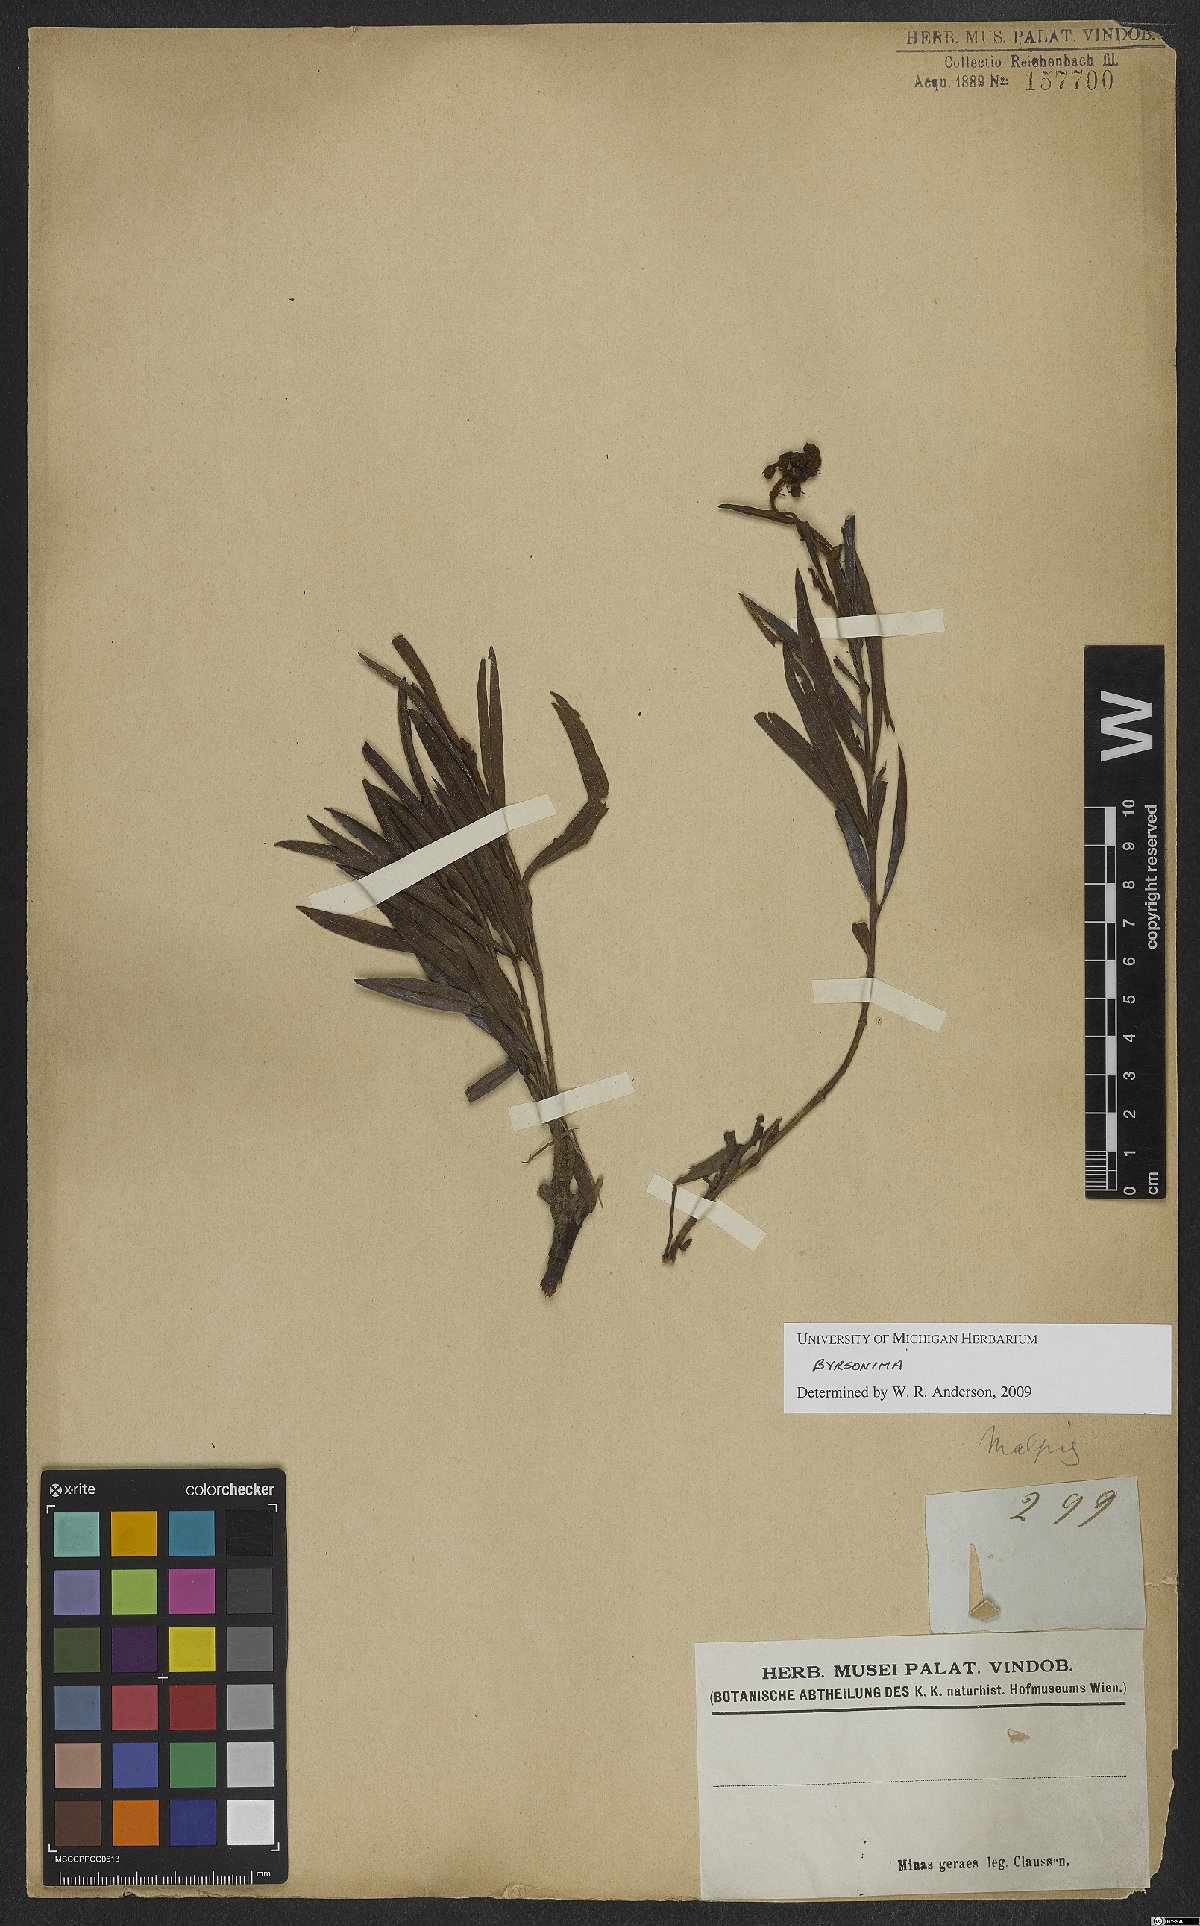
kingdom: Plantae
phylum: Tracheophyta
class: Magnoliopsida
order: Malpighiales
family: Malpighiaceae
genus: Byrsonima
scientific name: Byrsonima
